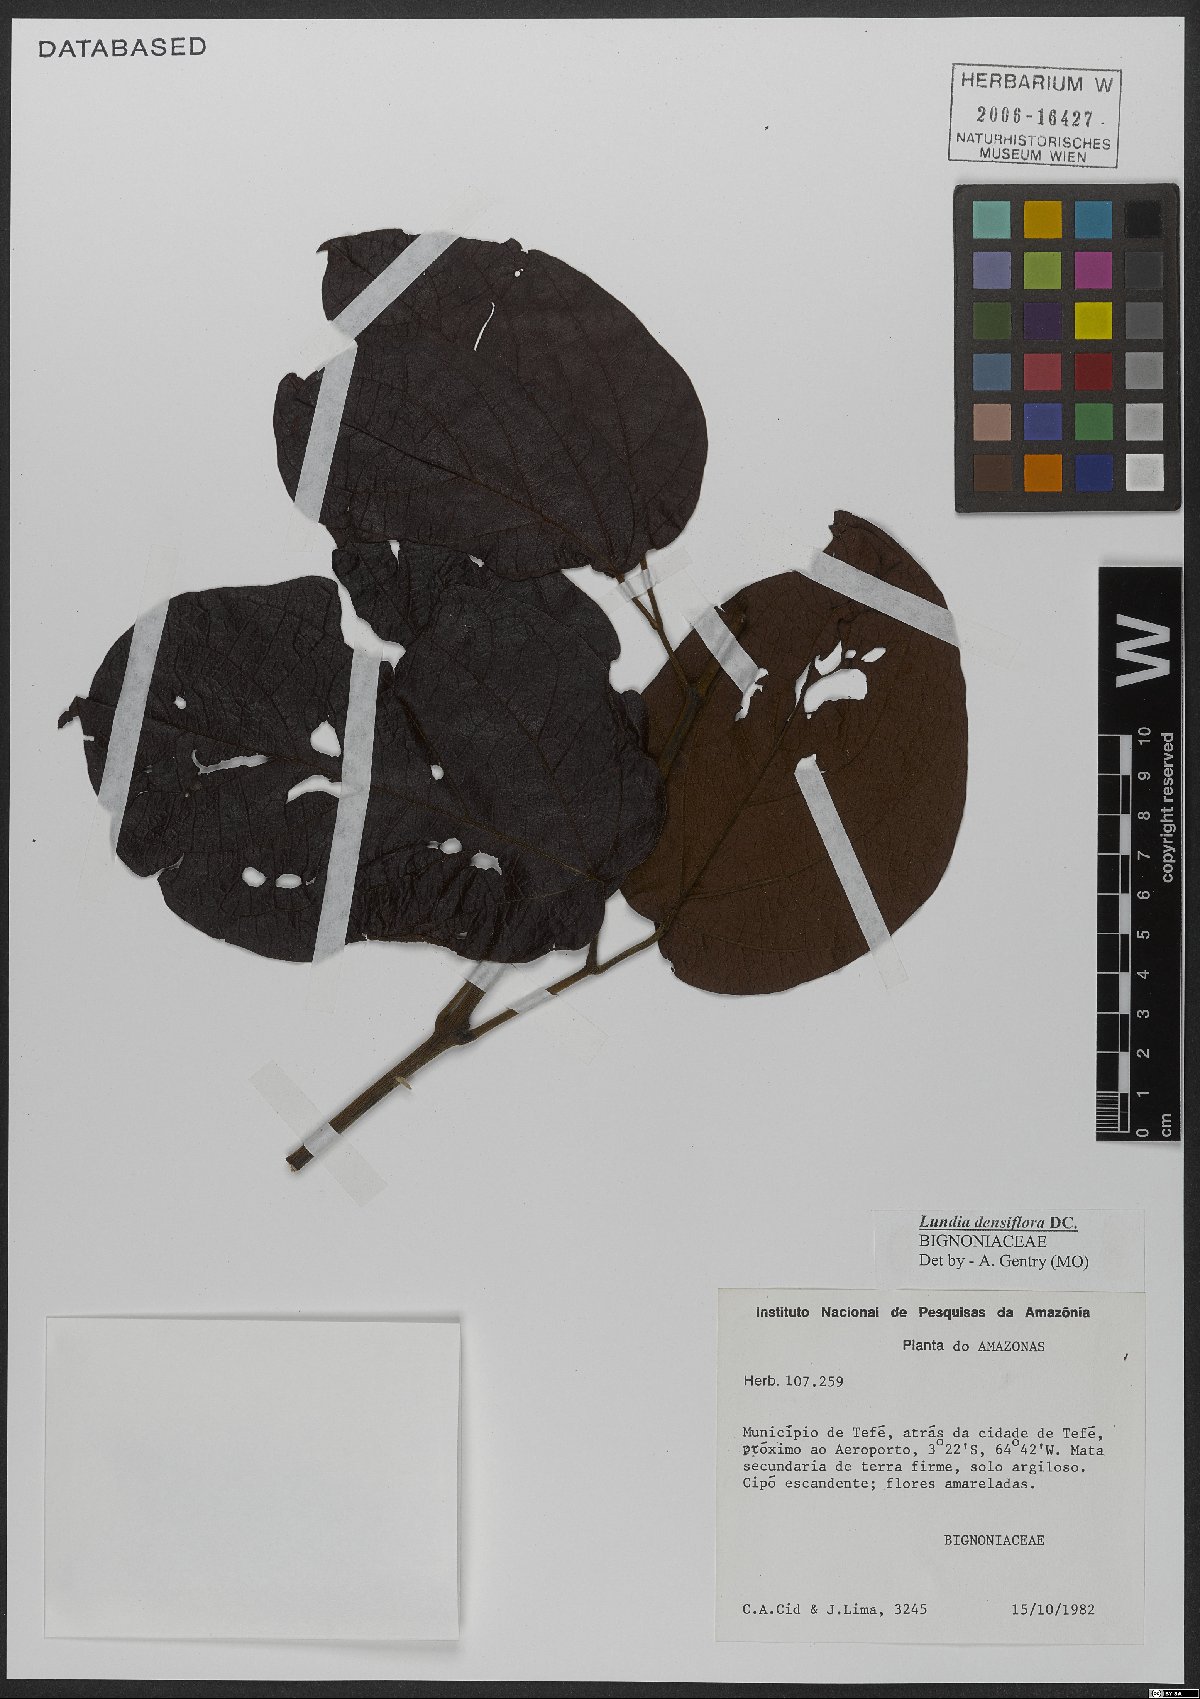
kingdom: Plantae
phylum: Tracheophyta
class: Magnoliopsida
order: Lamiales
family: Bignoniaceae
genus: Lundia
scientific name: Lundia densiflora
